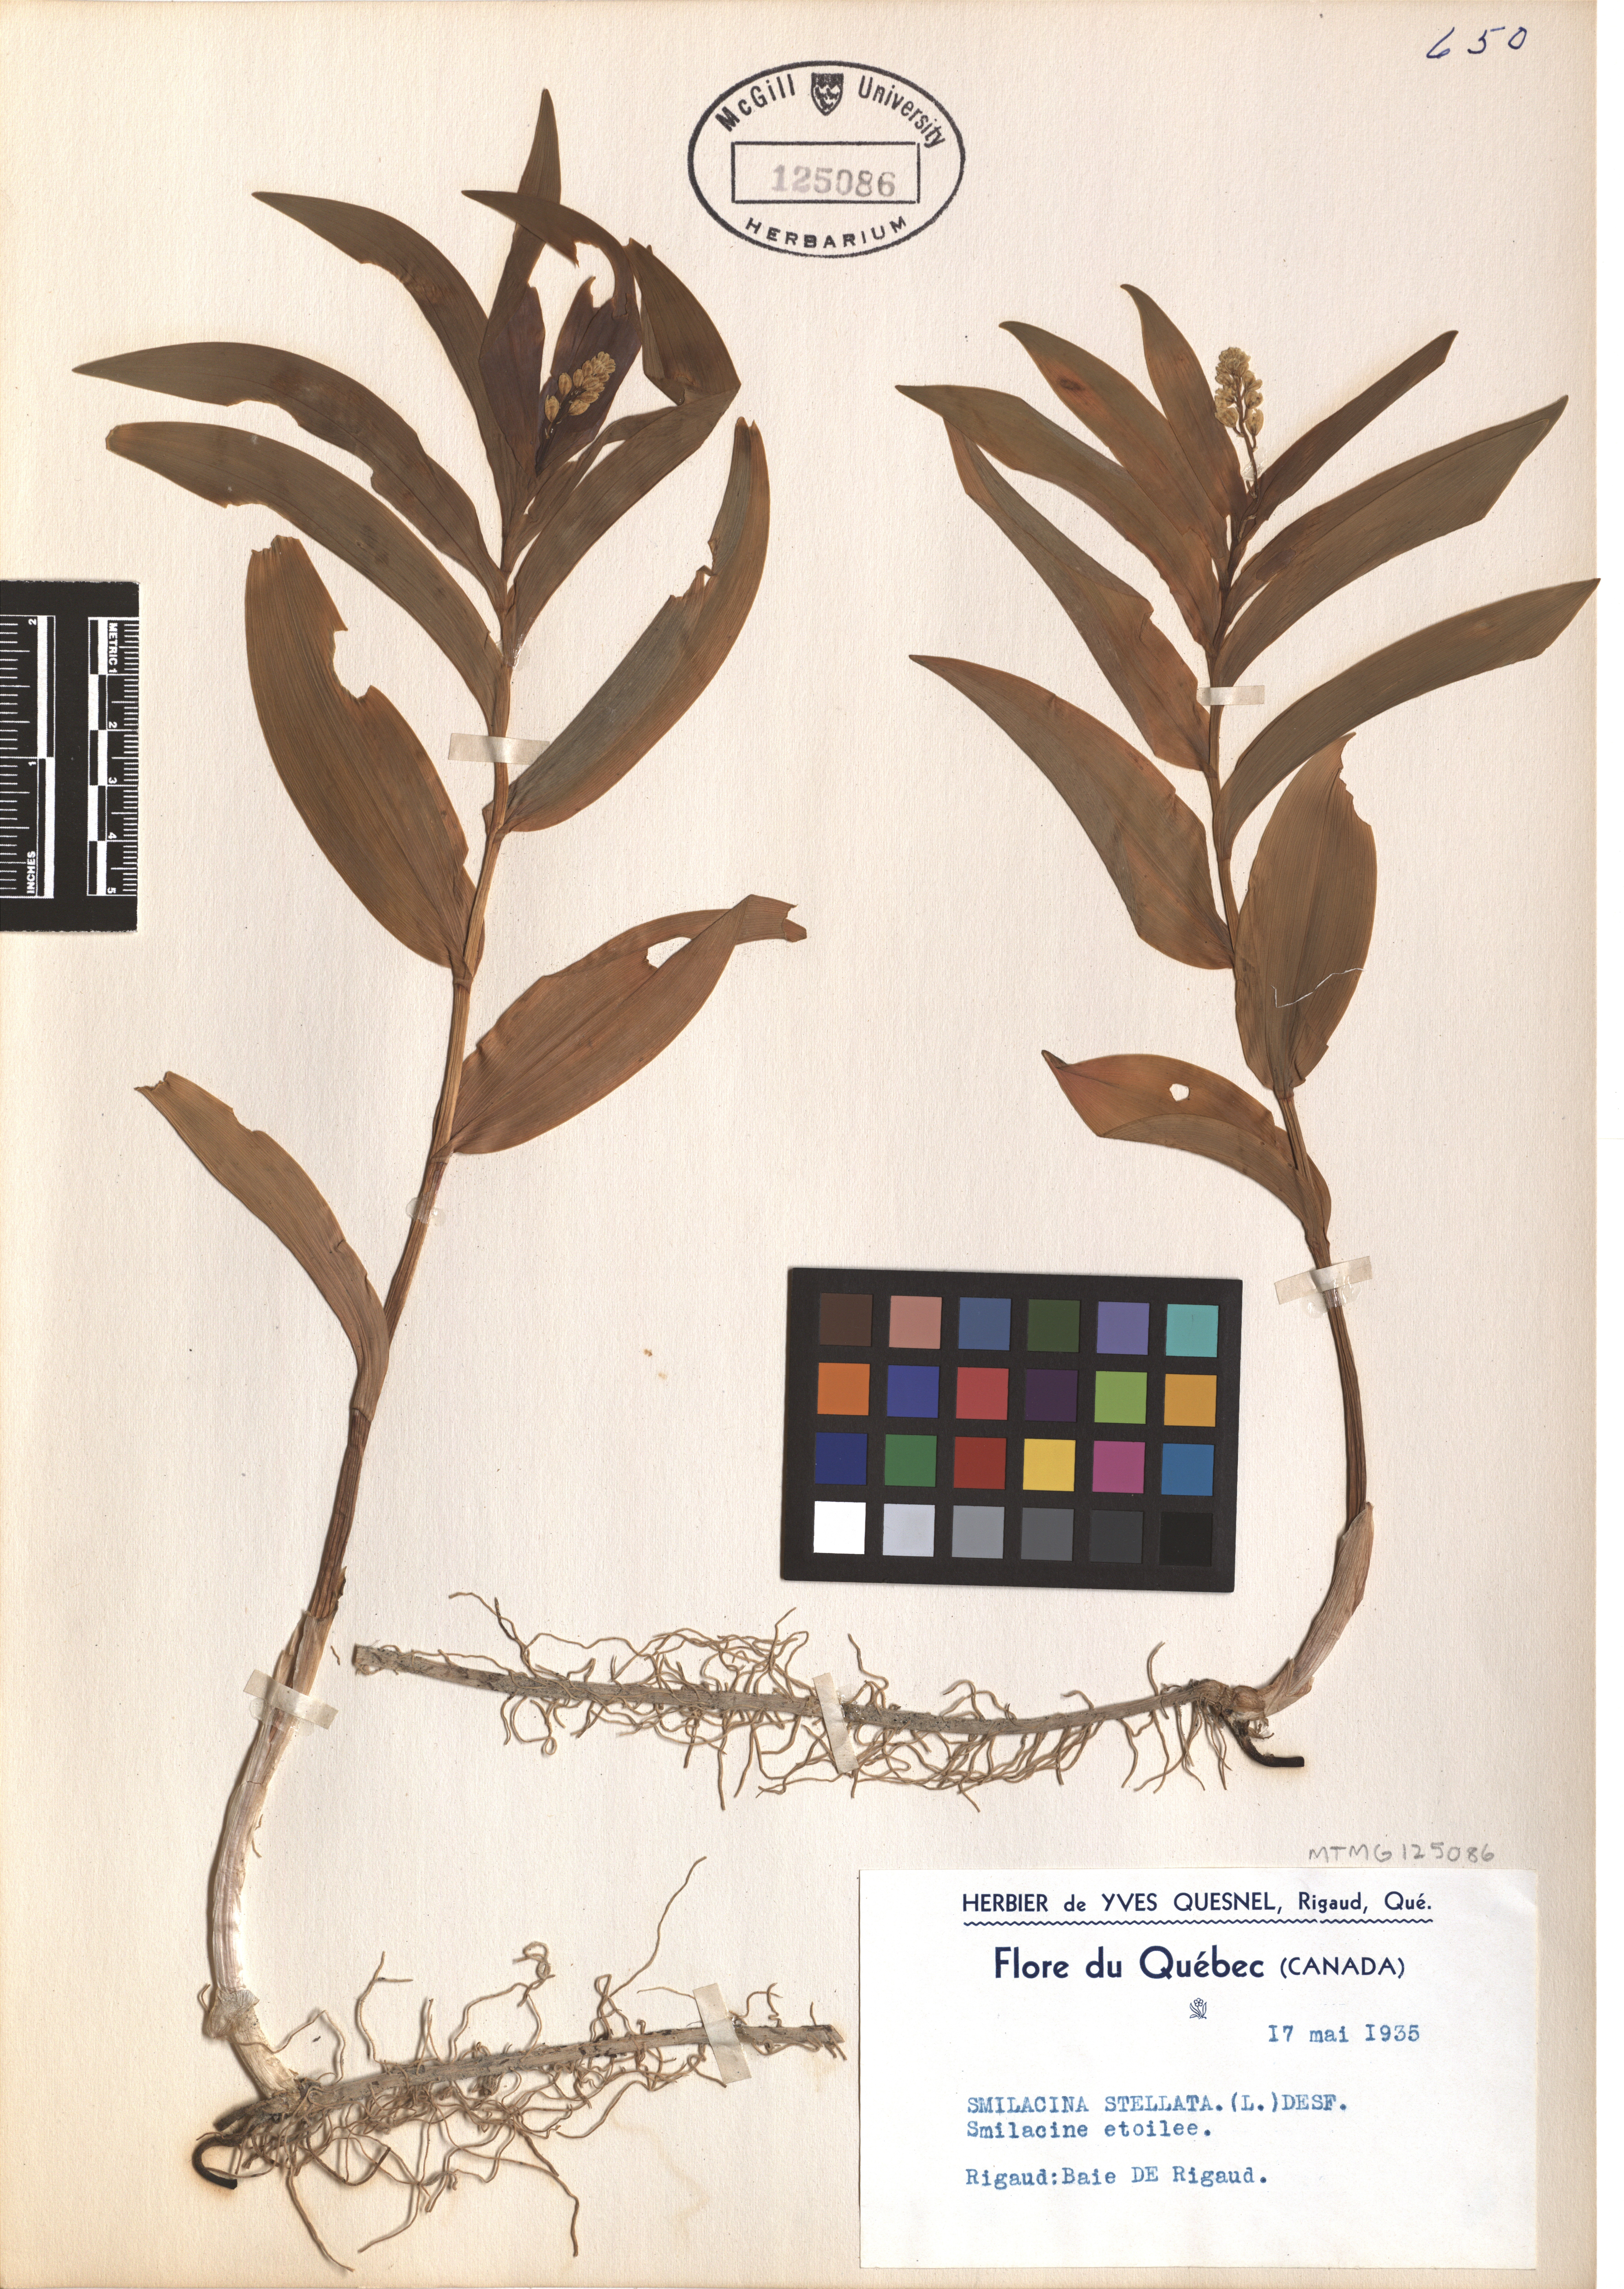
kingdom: Plantae
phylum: Tracheophyta
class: Liliopsida
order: Asparagales
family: Asparagaceae
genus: Maianthemum
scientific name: Maianthemum stellatum
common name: Little false solomon's seal
